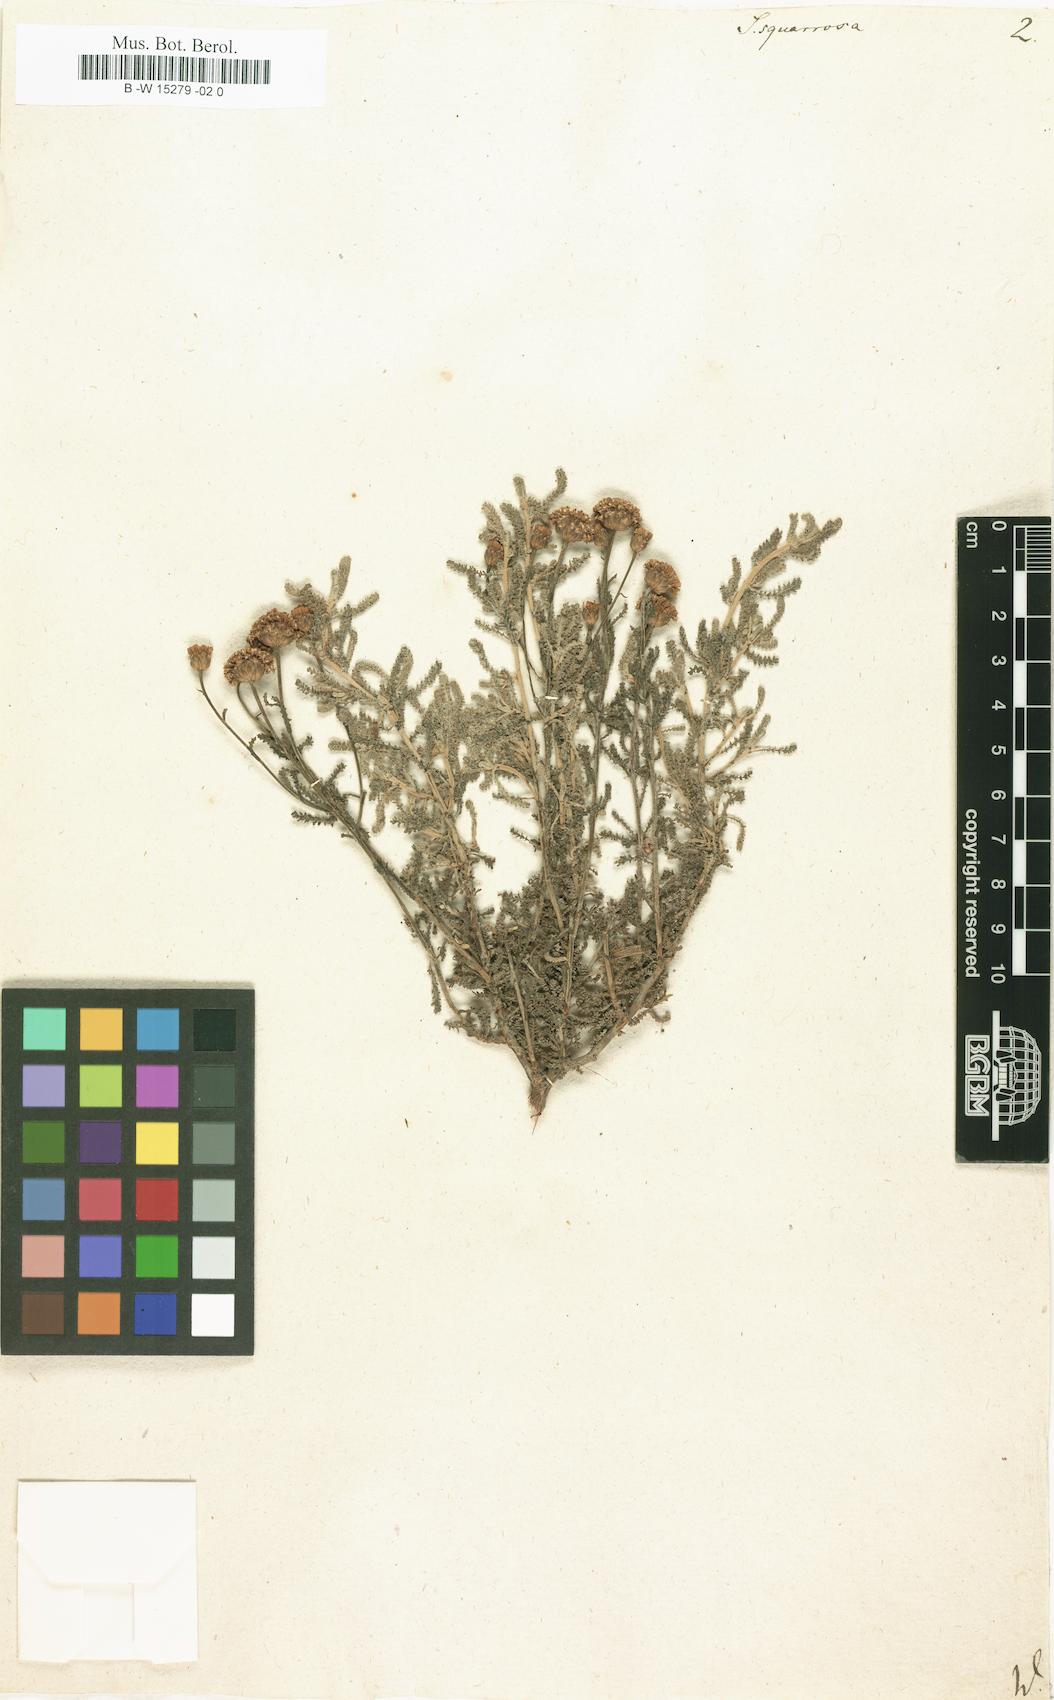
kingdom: Plantae
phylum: Tracheophyta
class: Magnoliopsida
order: Asterales
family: Asteraceae
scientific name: Asteraceae
